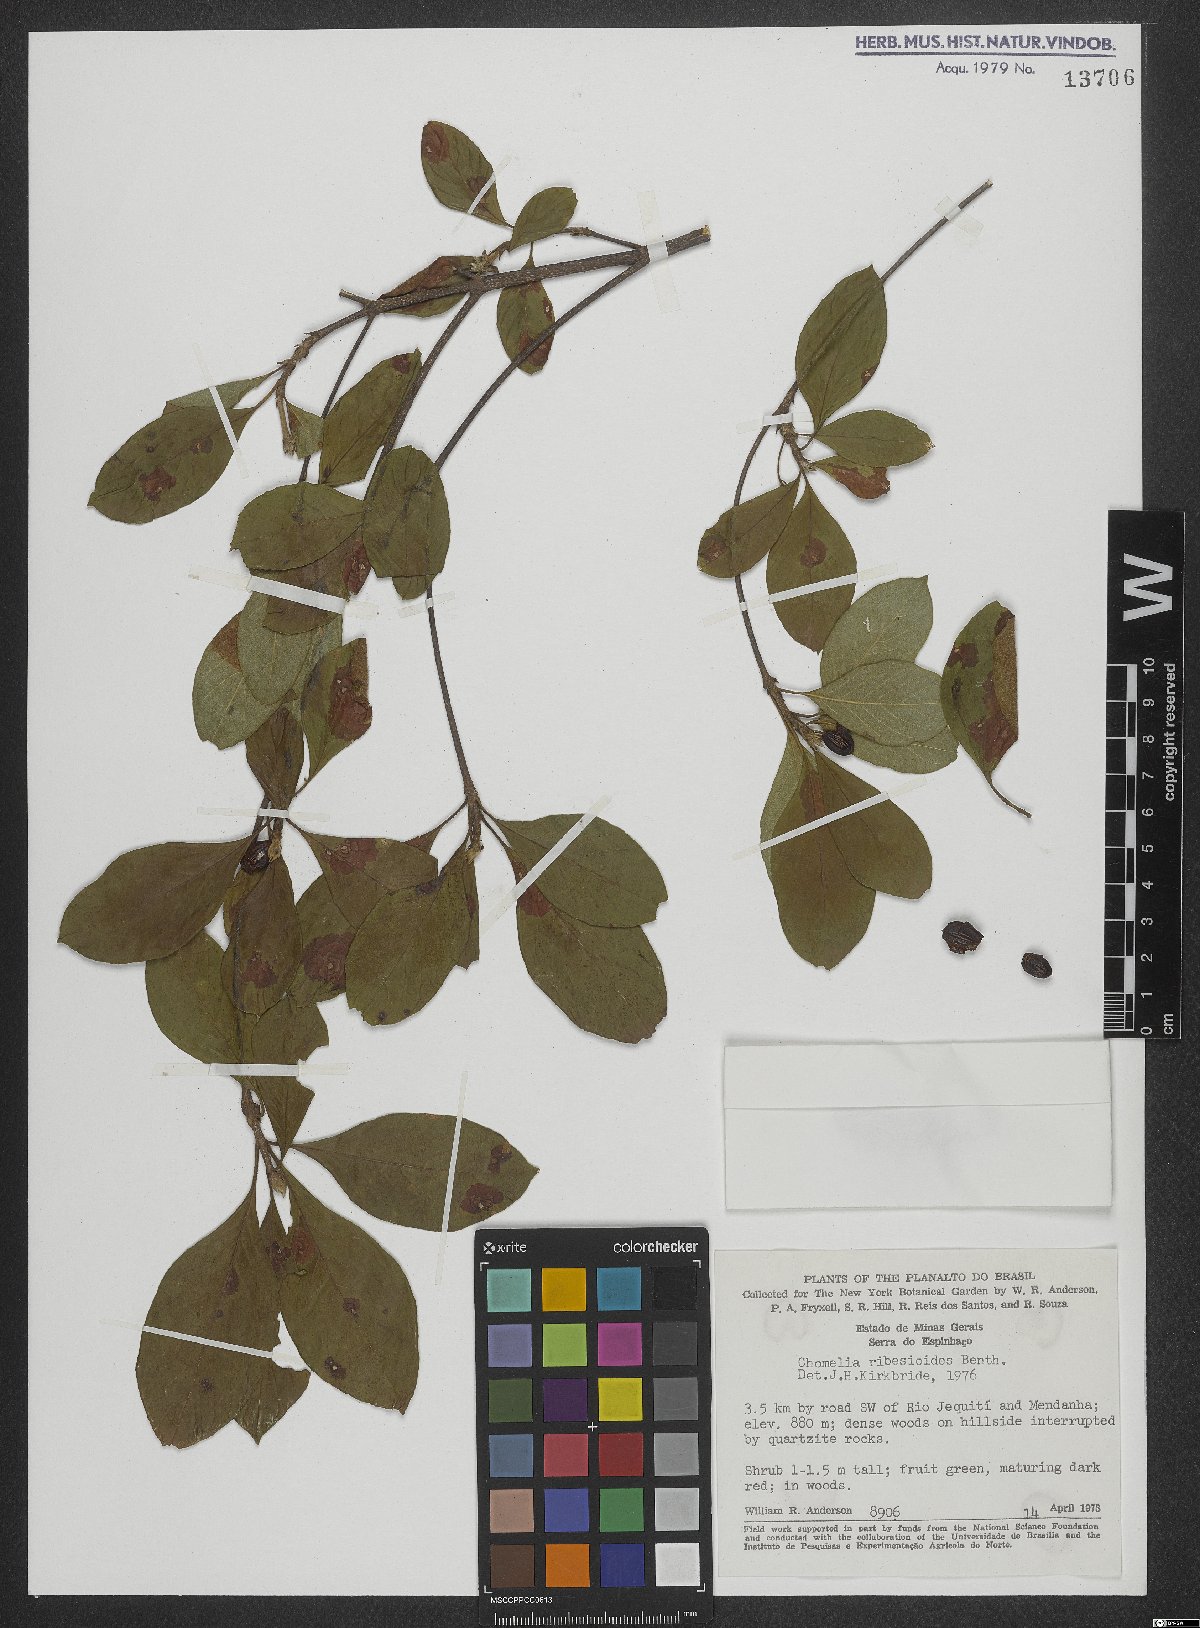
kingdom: Plantae
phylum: Tracheophyta
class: Magnoliopsida
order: Gentianales
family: Rubiaceae
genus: Chomelia
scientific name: Chomelia ribesioides
